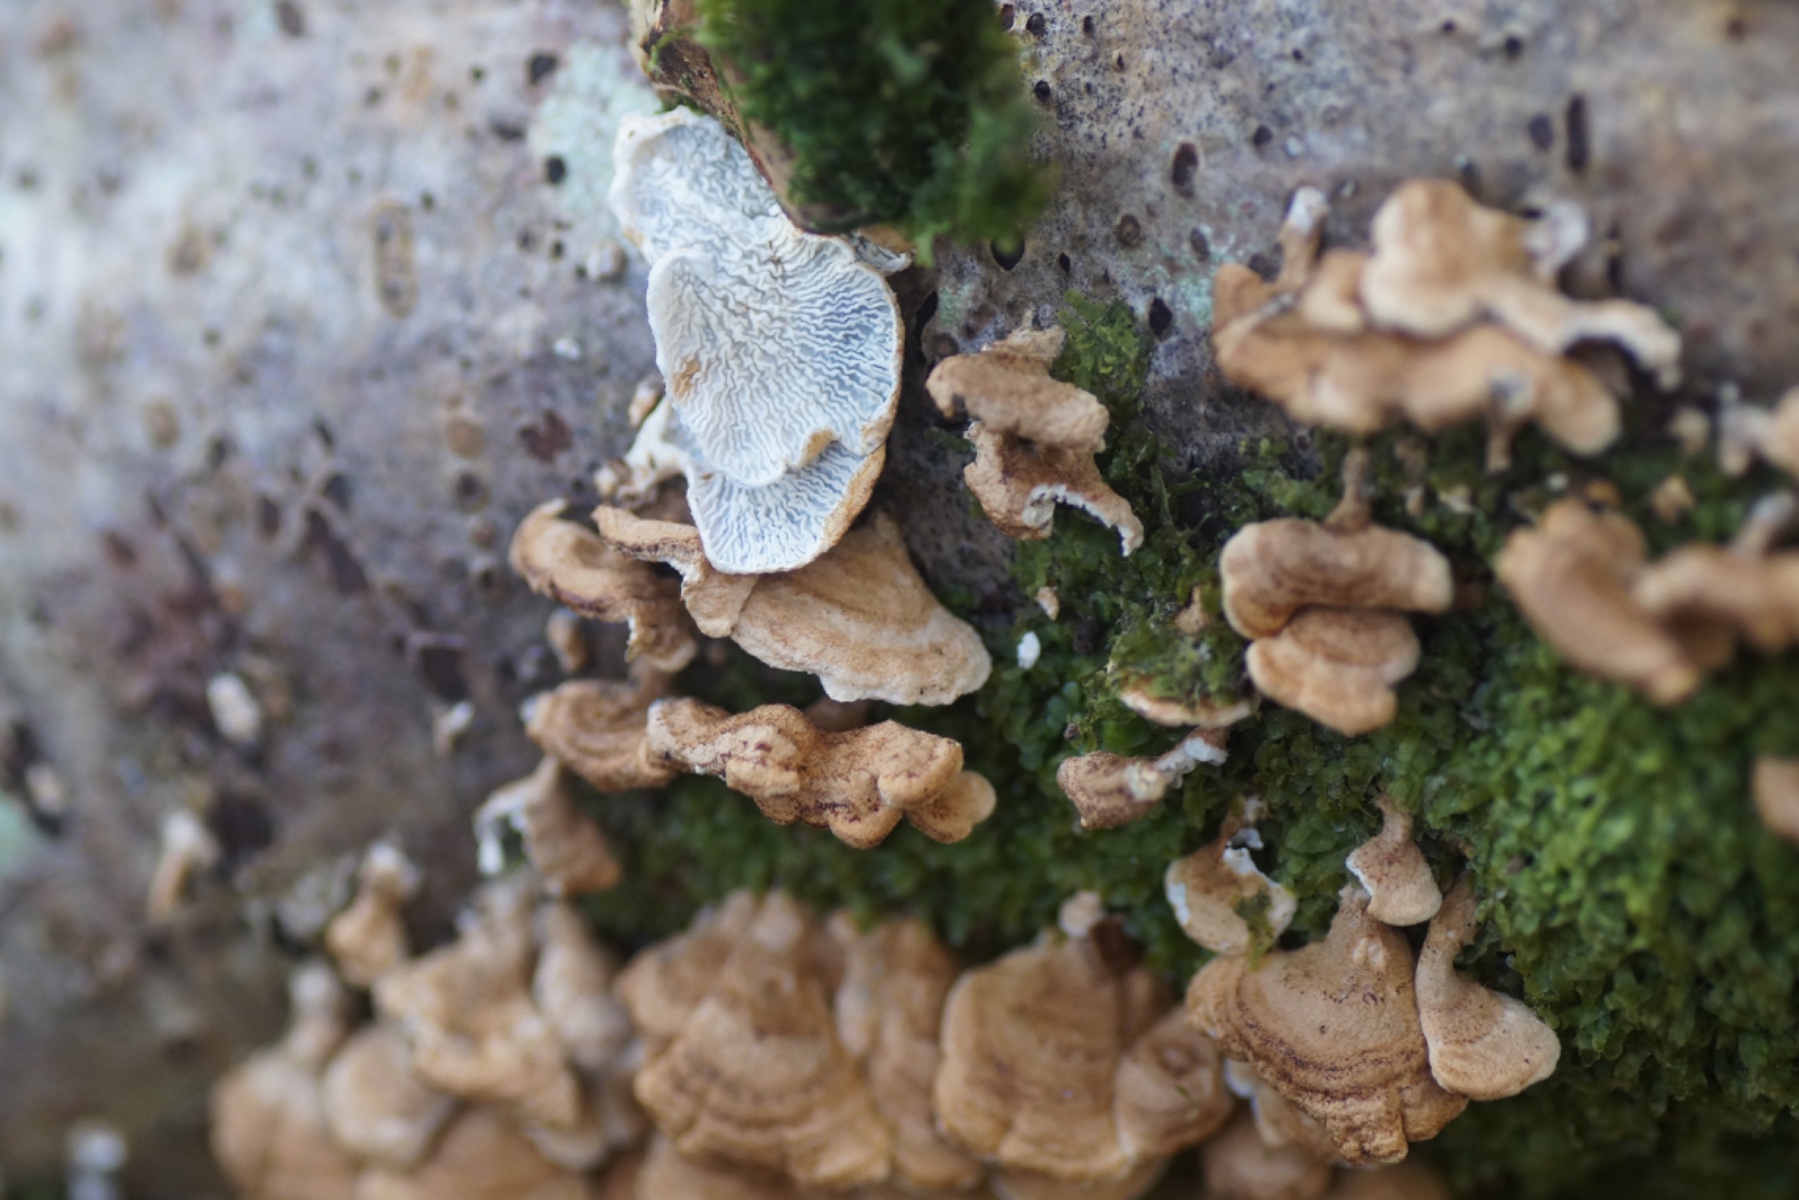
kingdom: Fungi
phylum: Basidiomycota
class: Agaricomycetes
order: Amylocorticiales
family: Amylocorticiaceae
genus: Plicaturopsis
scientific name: Plicaturopsis crispa
